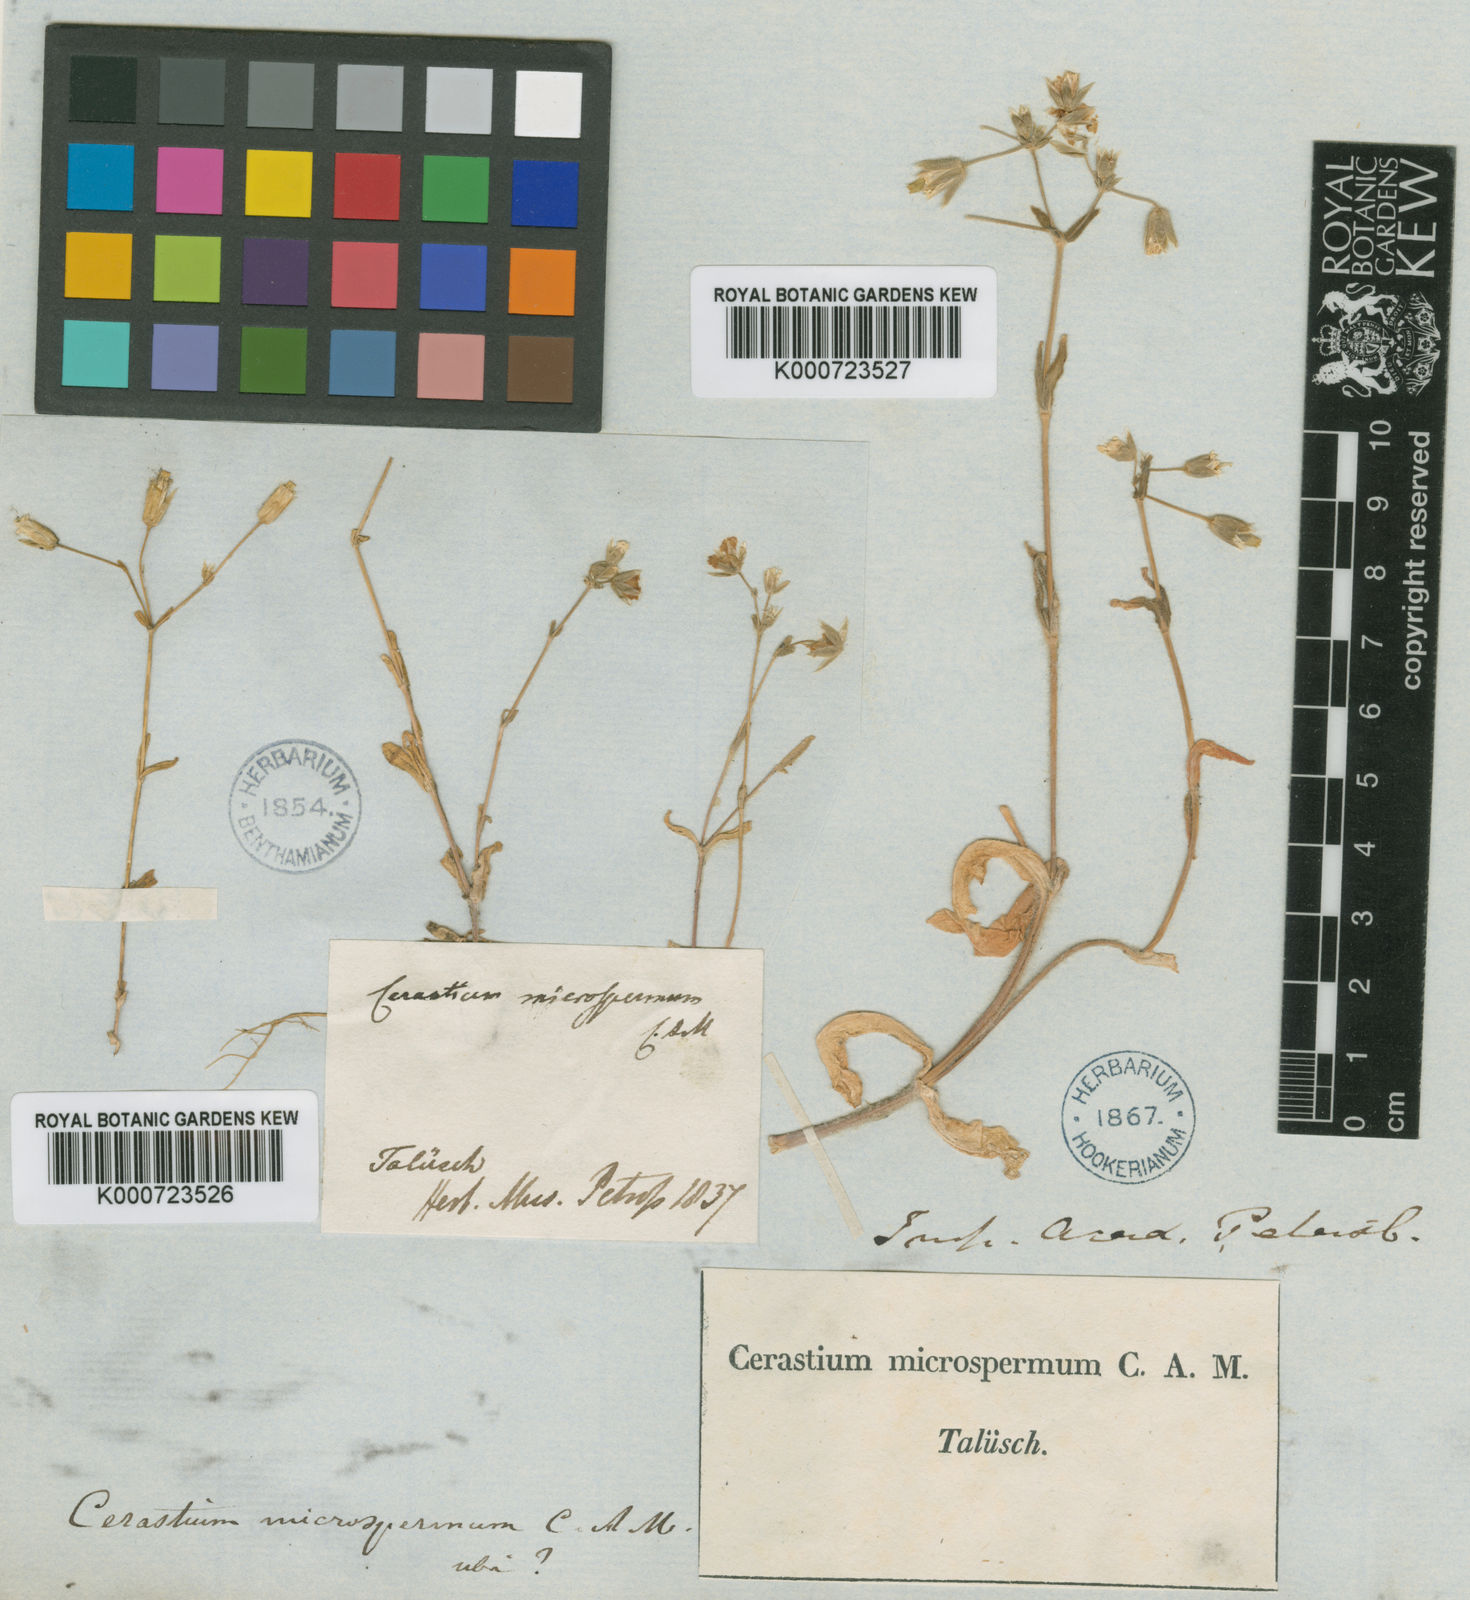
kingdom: Plantae
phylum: Tracheophyta
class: Magnoliopsida
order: Caryophyllales
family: Caryophyllaceae
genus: Cerastium
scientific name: Cerastium microspermum
